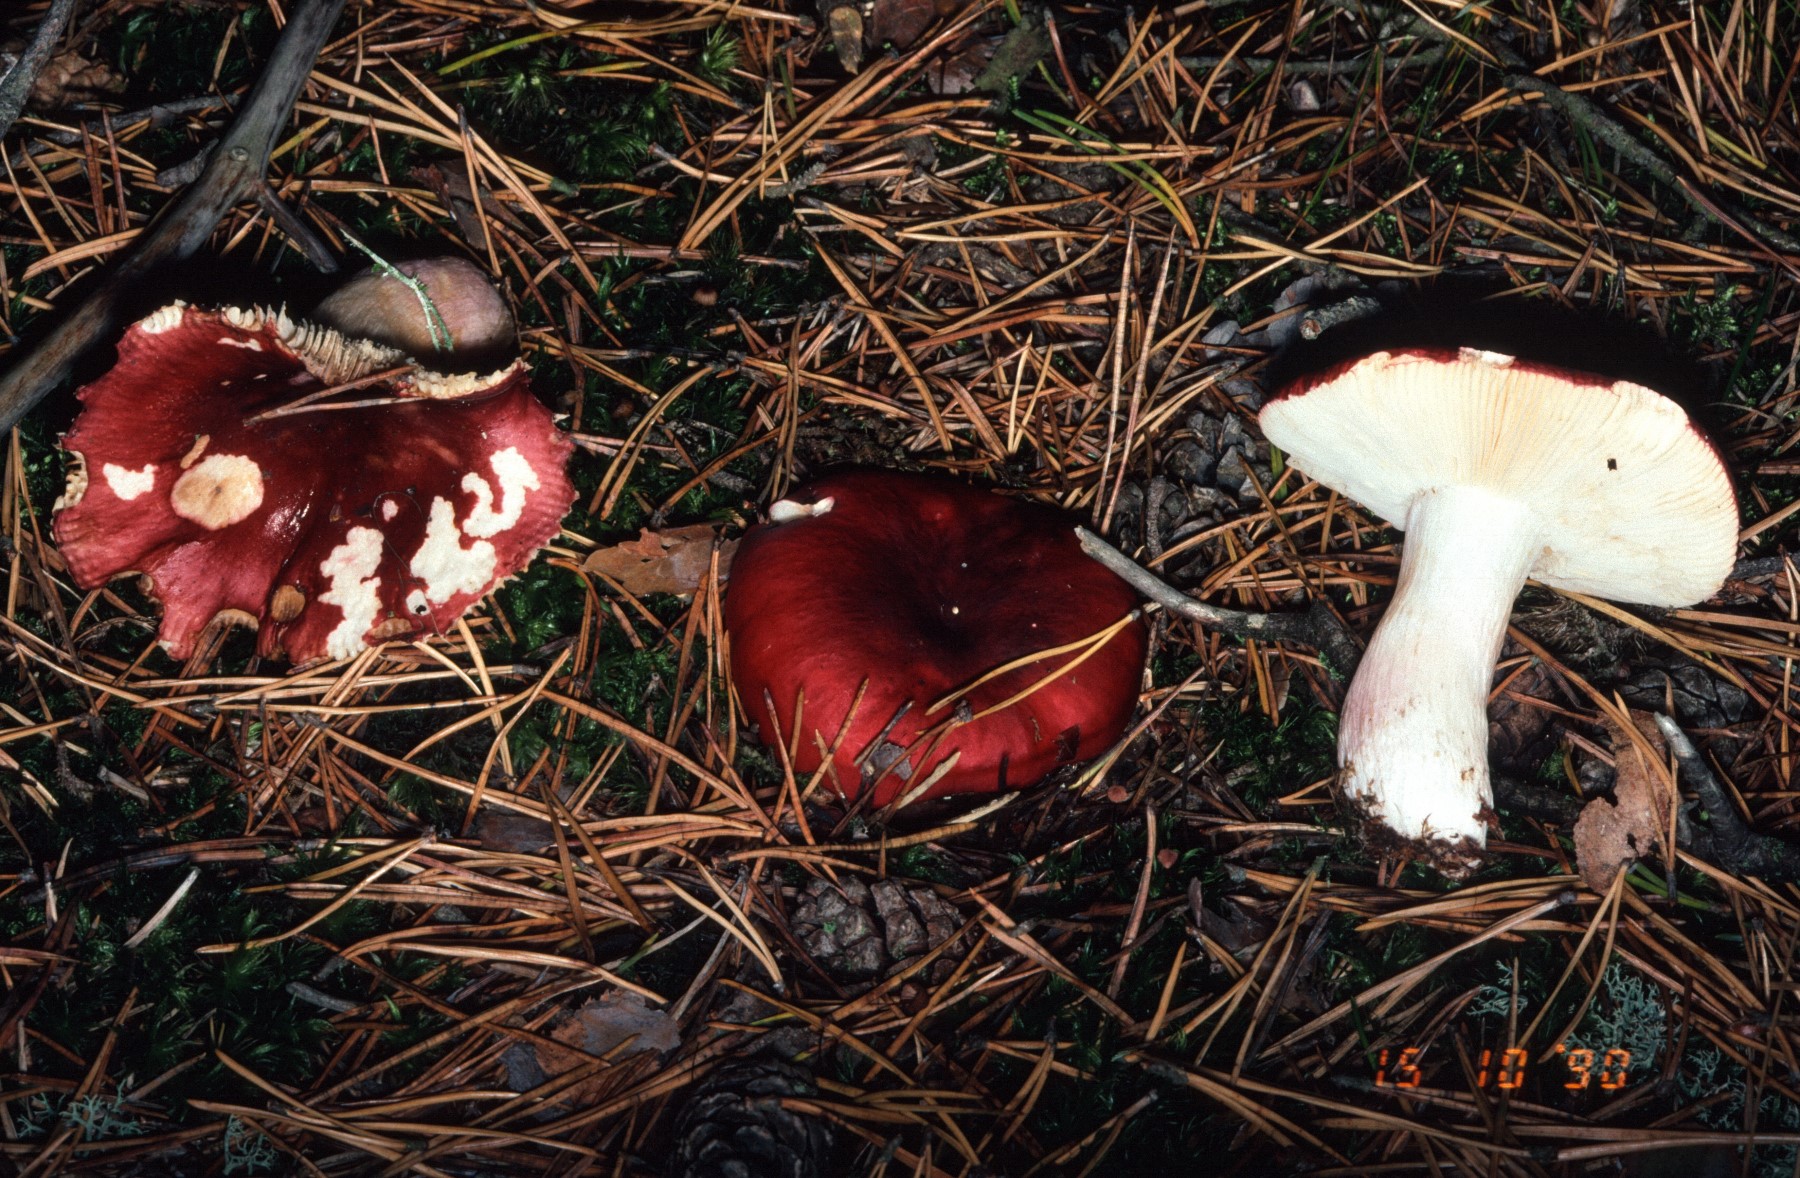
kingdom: Fungi
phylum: Basidiomycota
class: Agaricomycetes
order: Russulales
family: Russulaceae
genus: Russula
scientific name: Russula xerampelina
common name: hummer-skørhat
